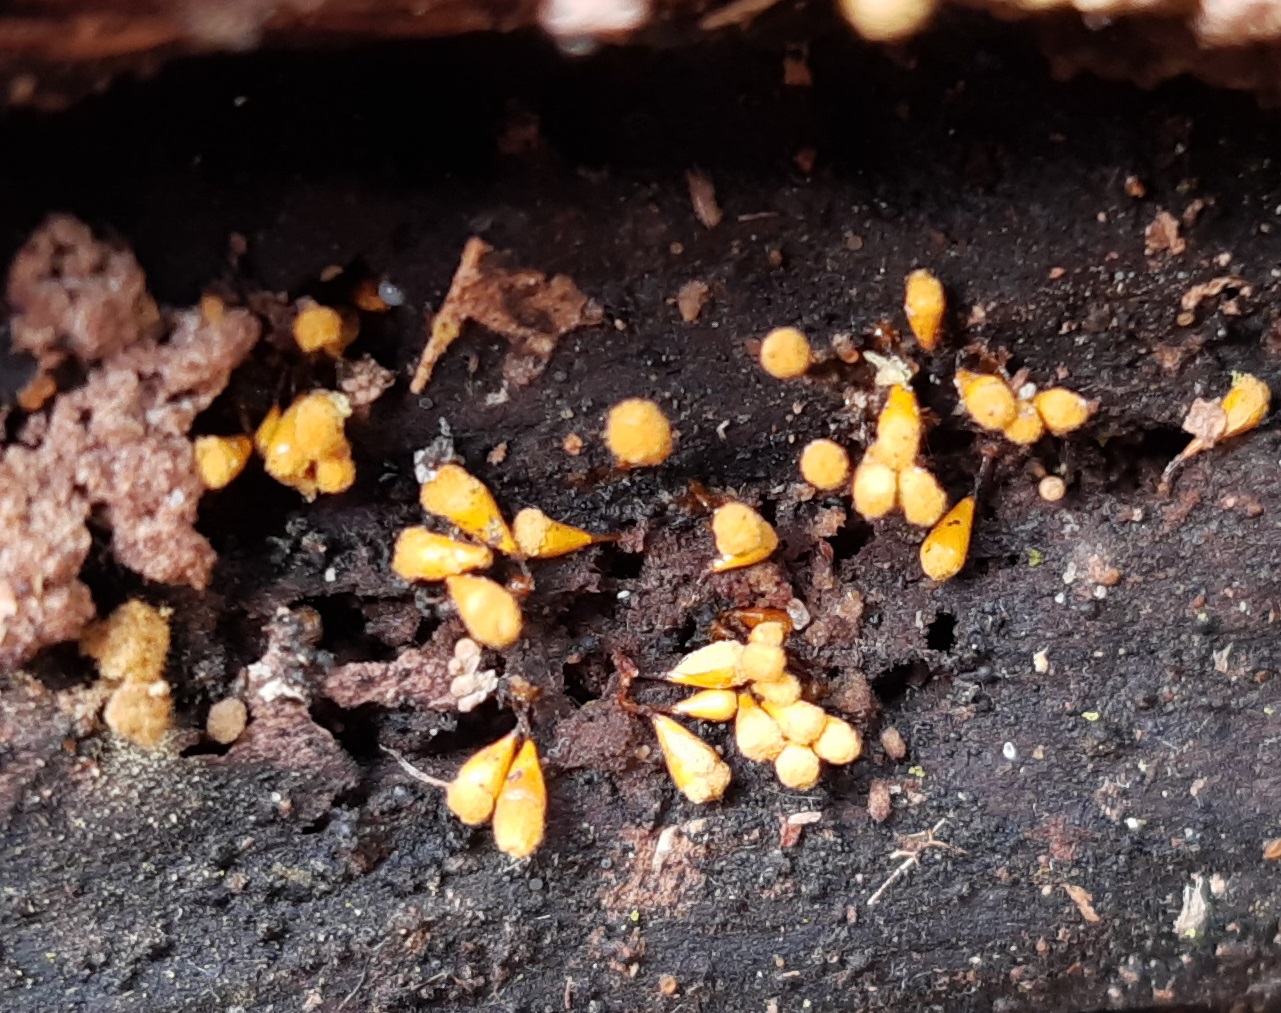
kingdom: Protozoa
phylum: Mycetozoa
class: Myxomycetes
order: Trichiales
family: Arcyriaceae
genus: Hemitrichia
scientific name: Hemitrichia clavata
